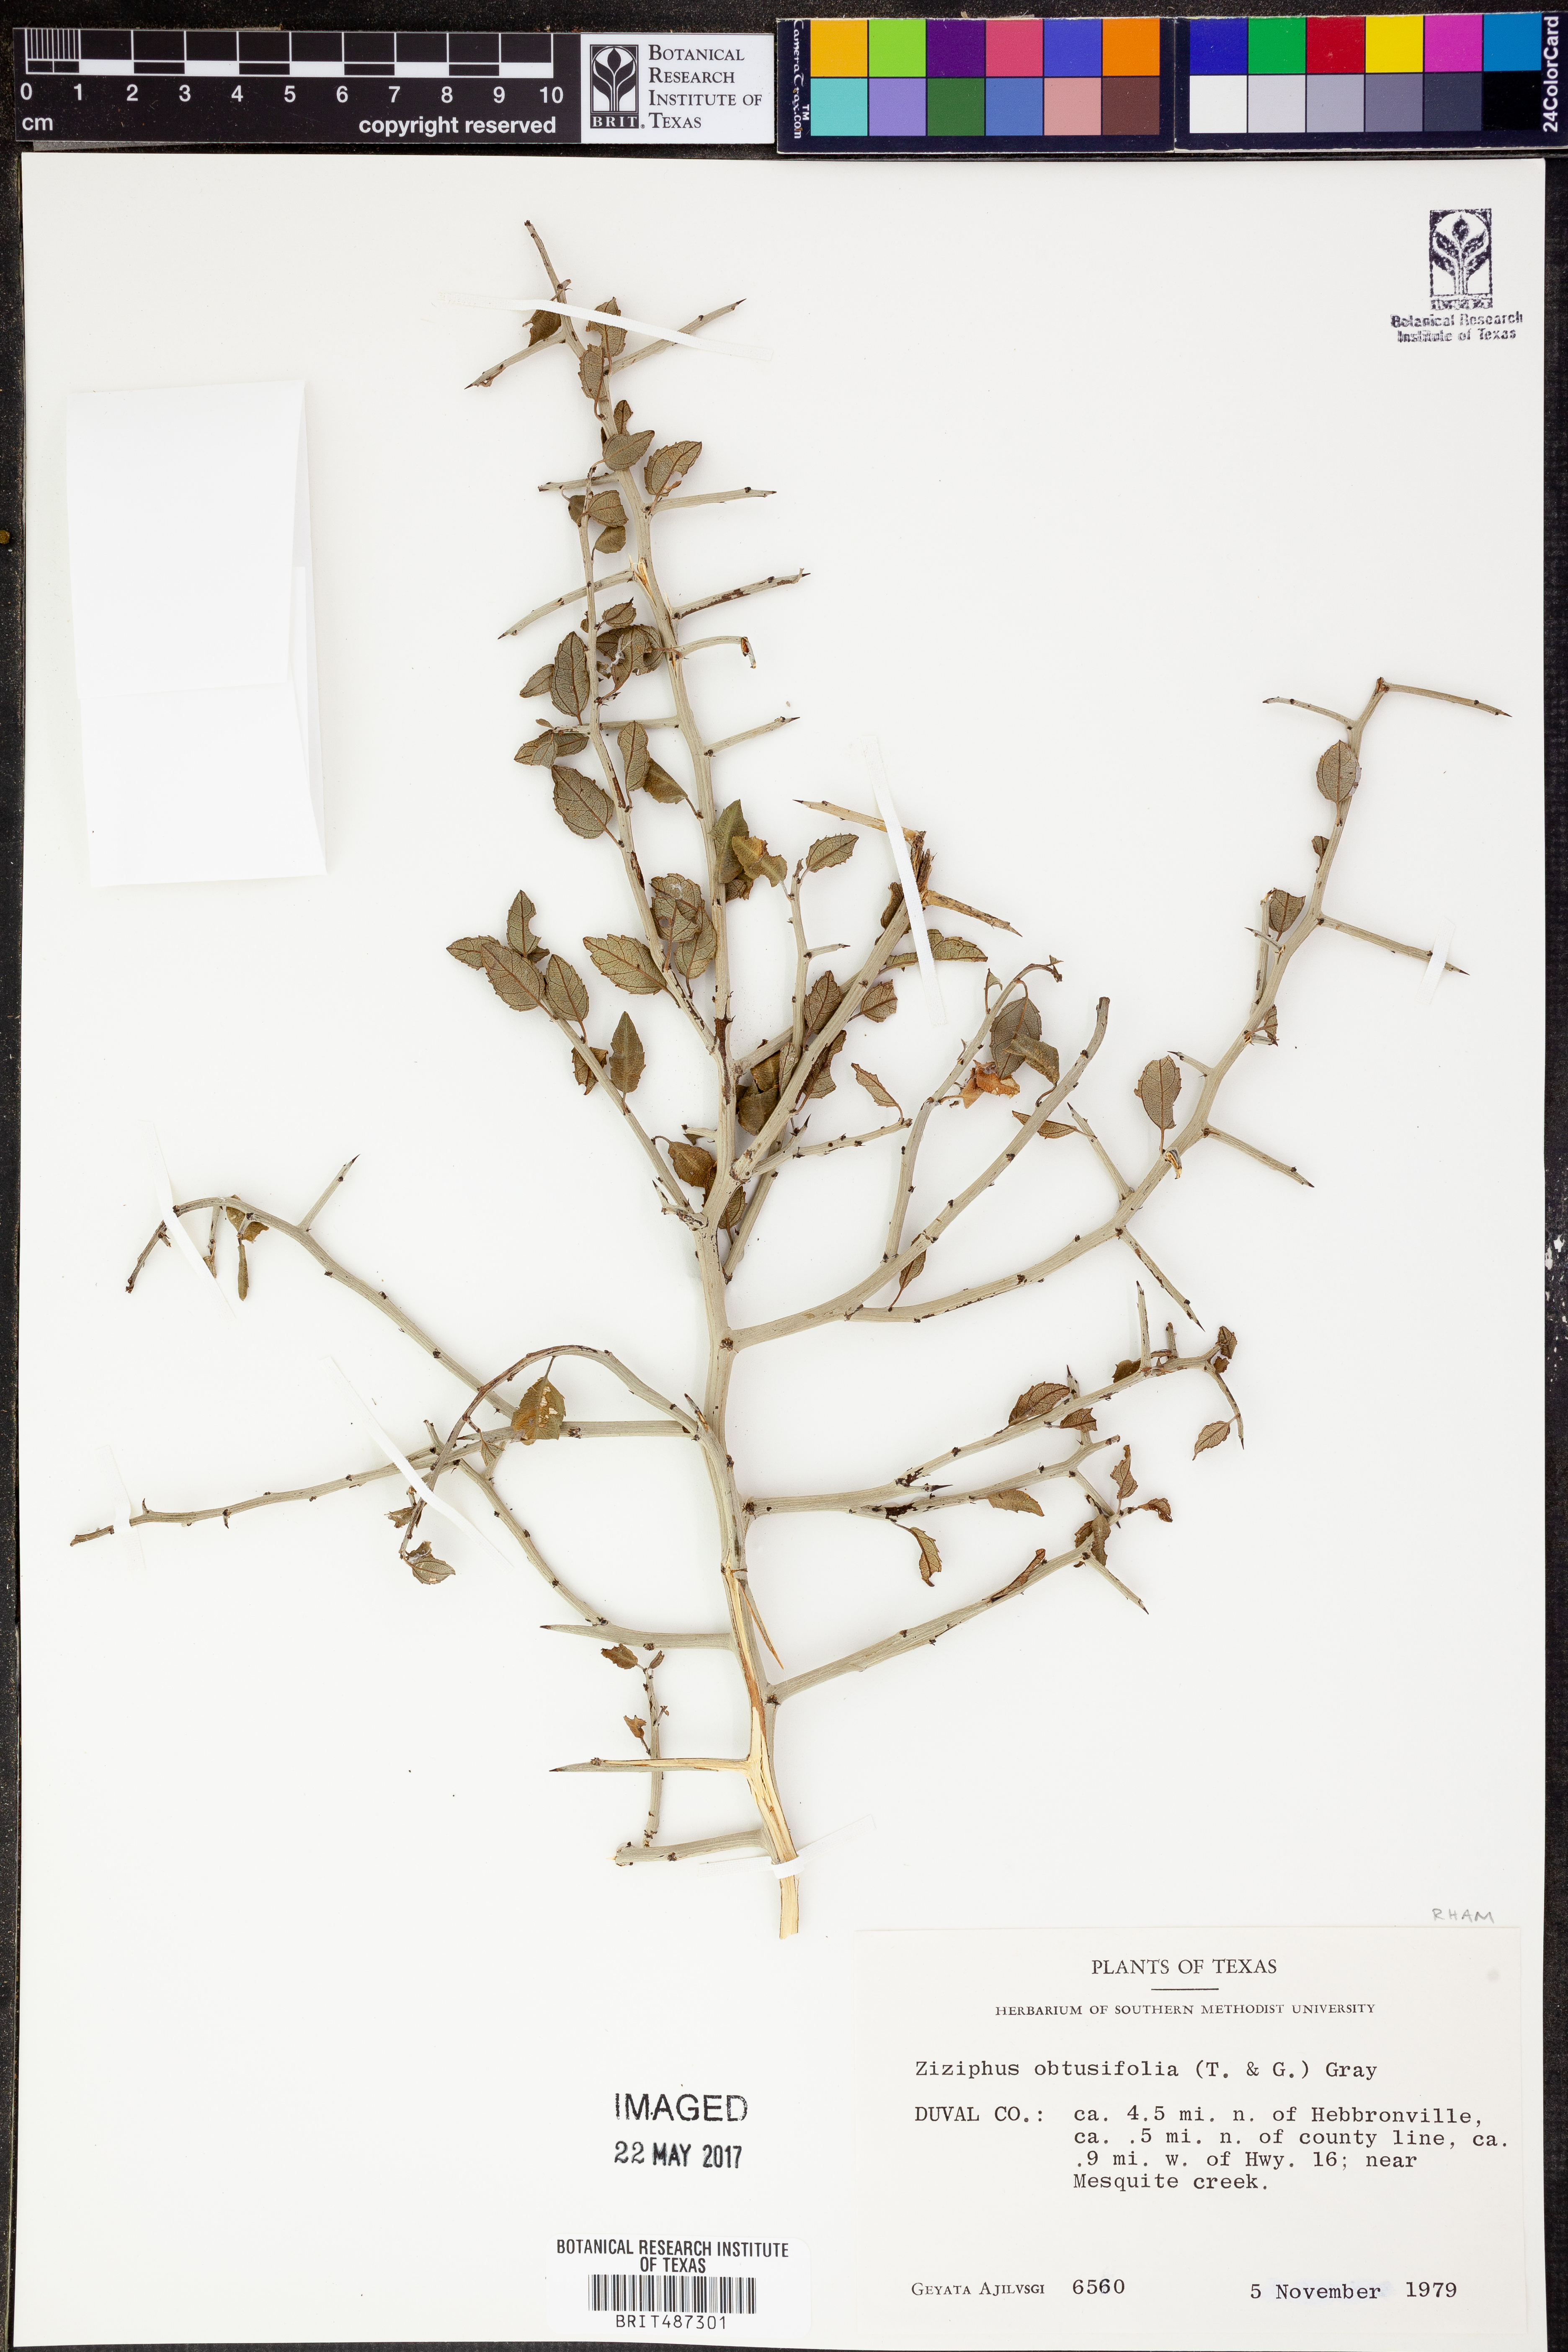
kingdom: Plantae
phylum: Tracheophyta
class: Magnoliopsida
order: Rosales
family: Rhamnaceae
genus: Sarcomphalus
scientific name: Sarcomphalus obtusifolius
